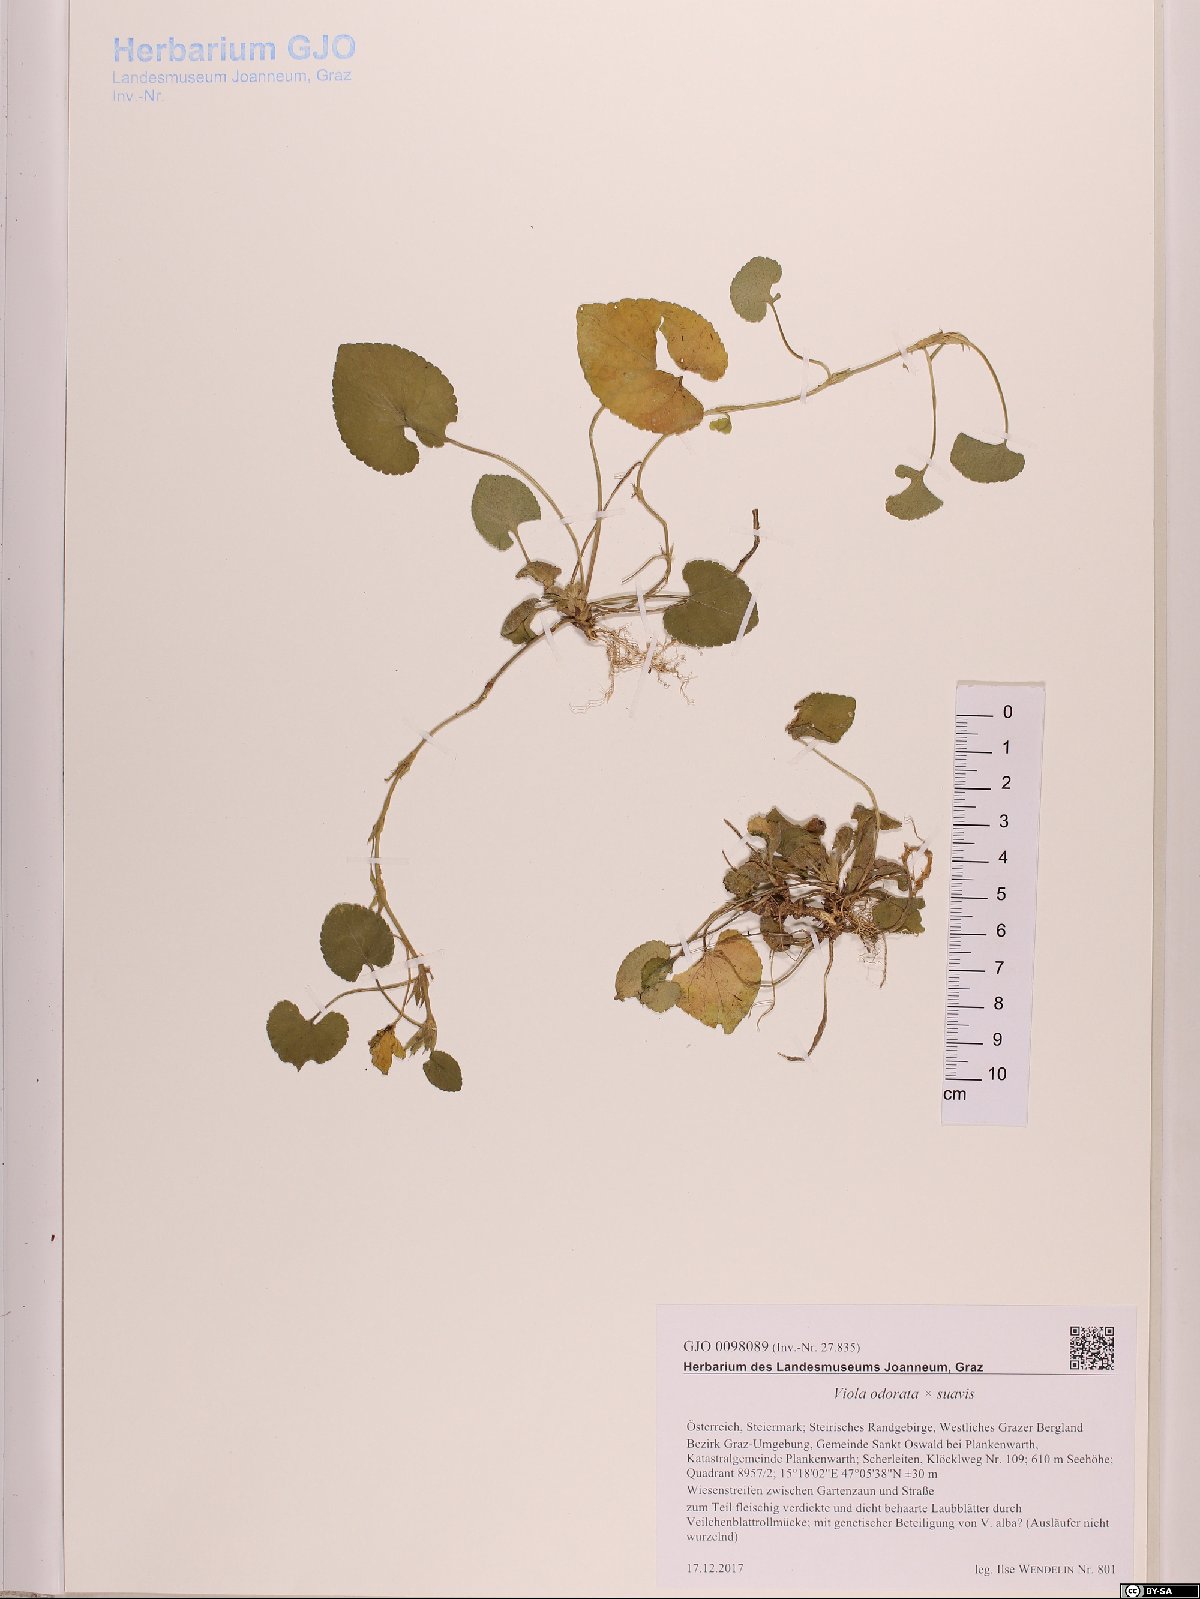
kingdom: Plantae
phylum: Tracheophyta
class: Magnoliopsida
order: Malpighiales
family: Violaceae
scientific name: Violaceae
